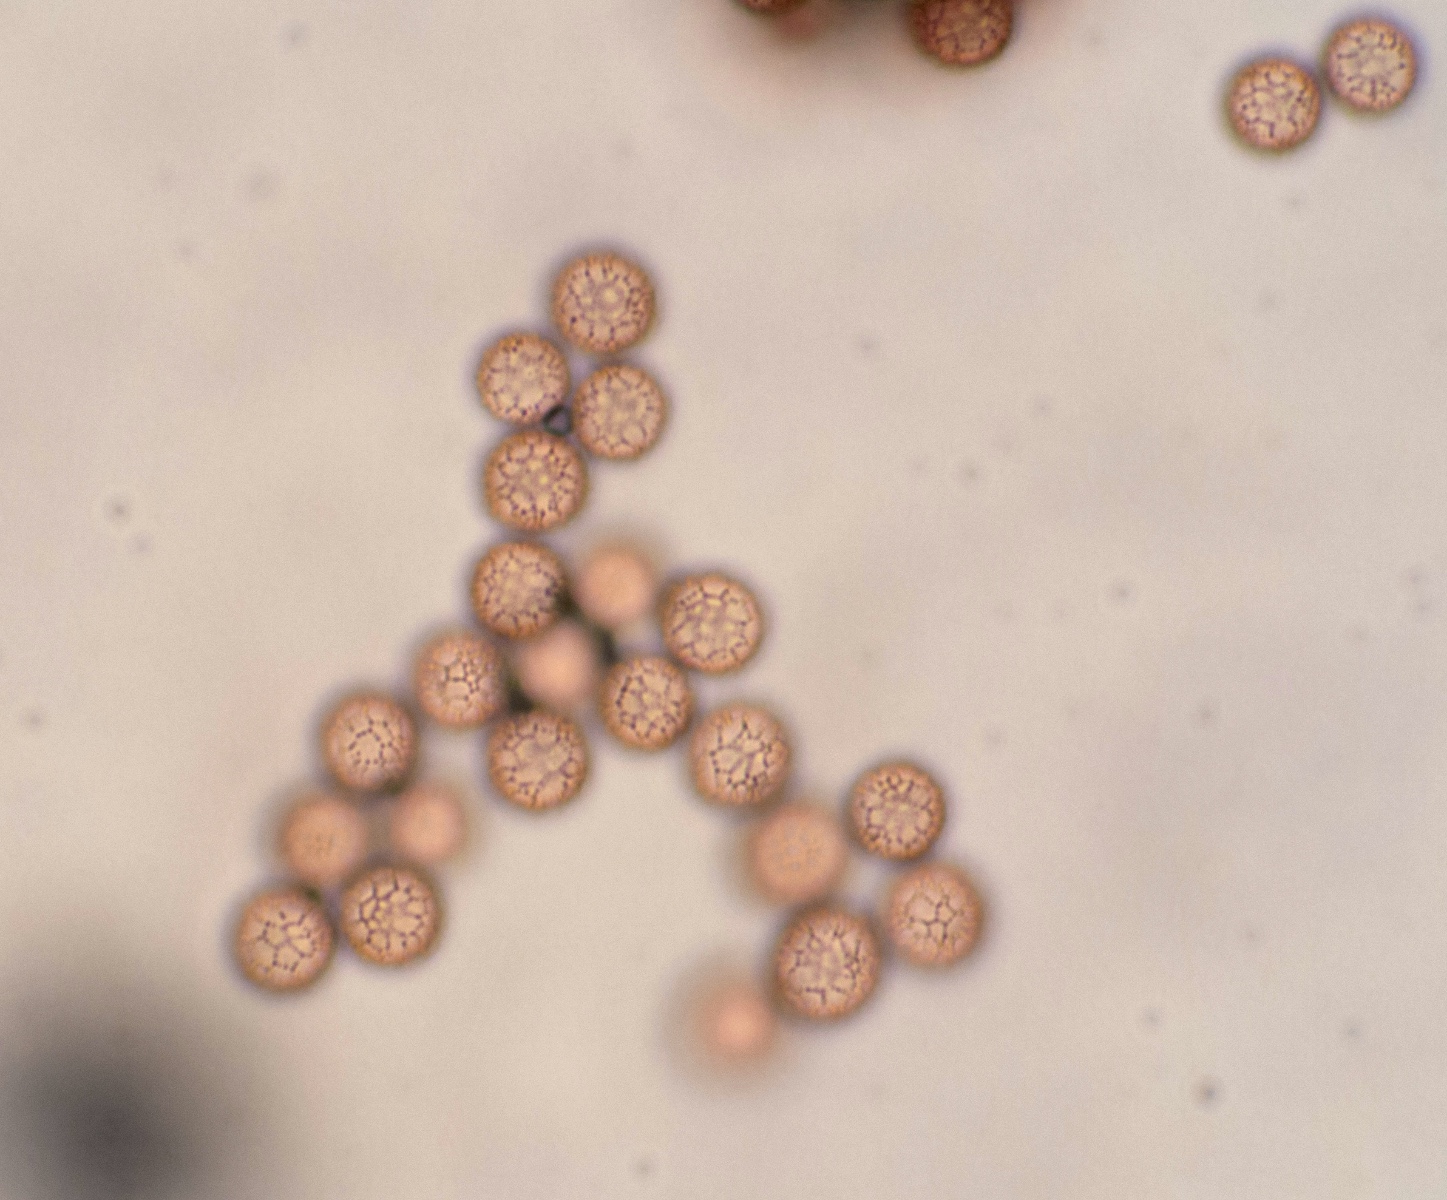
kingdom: Protozoa
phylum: Mycetozoa
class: Myxomycetes
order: Stemonitidales
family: Stemonitidaceae
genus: Stemonitis
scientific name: Stemonitis fusca
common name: sodbrun støvkølle
